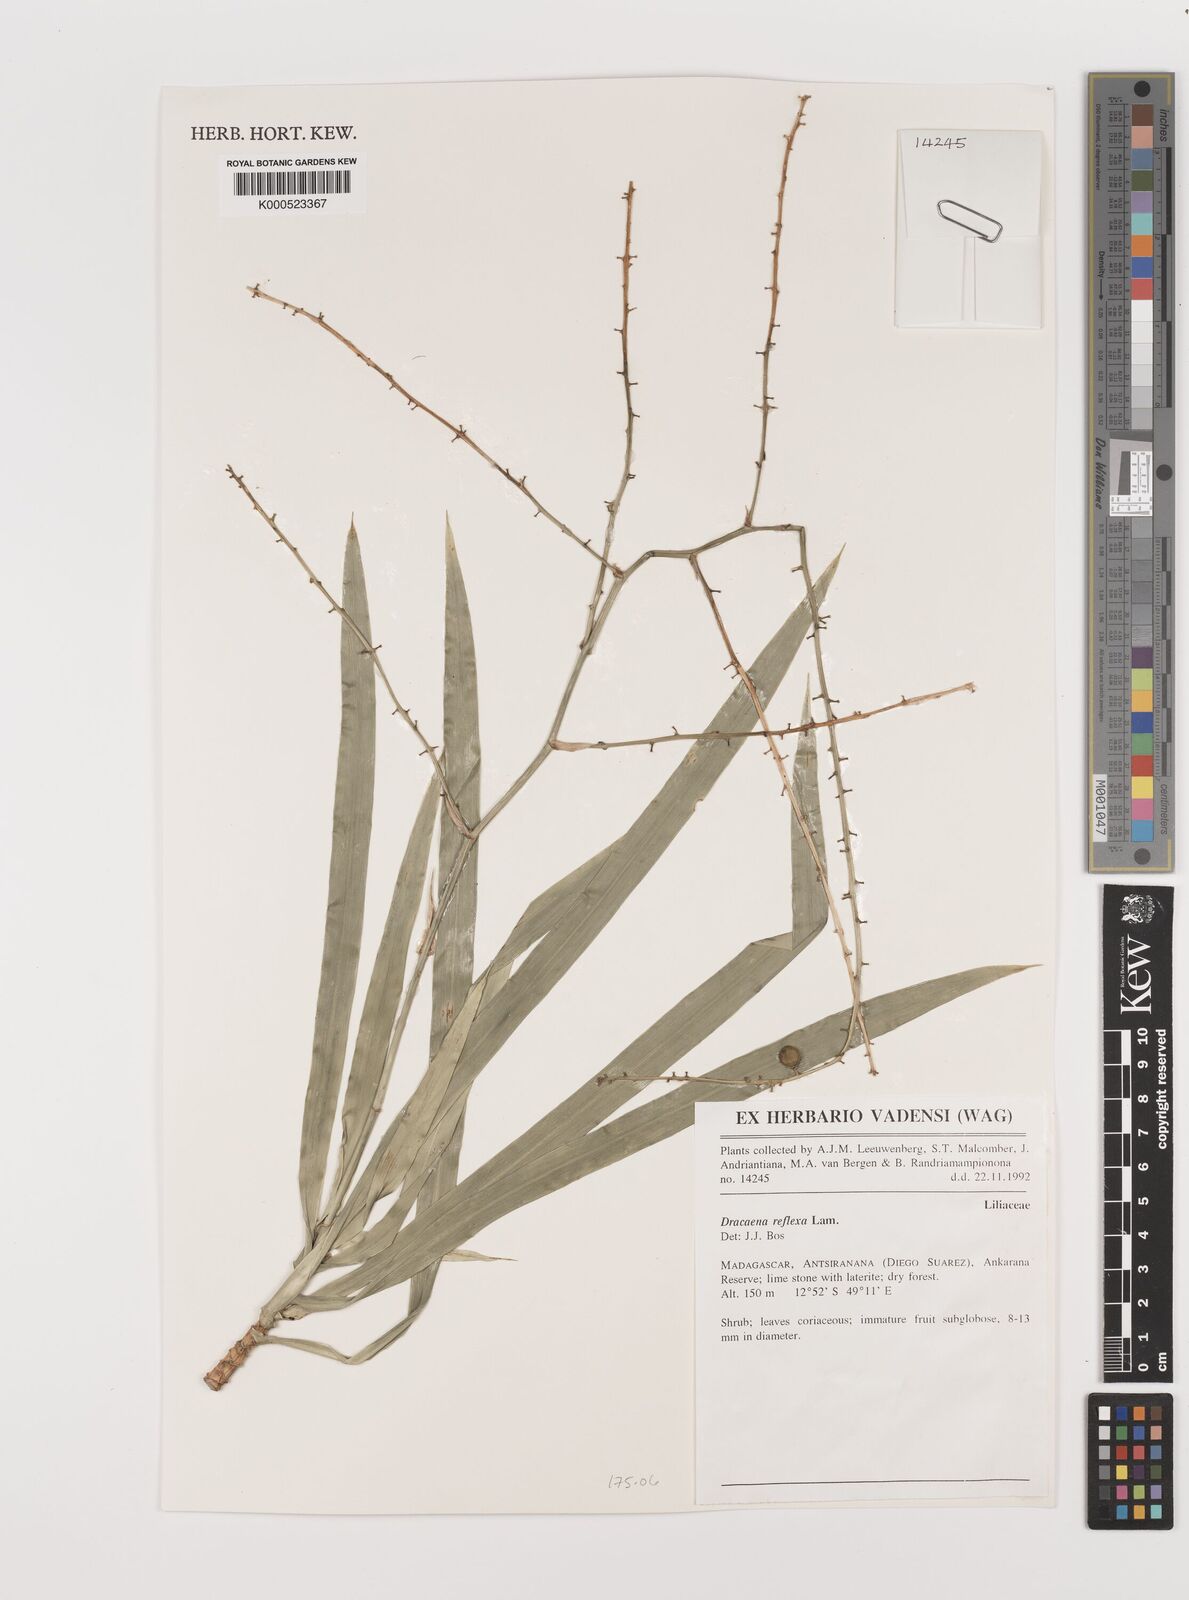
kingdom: Plantae
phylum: Tracheophyta
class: Liliopsida
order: Asparagales
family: Asparagaceae
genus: Dracaena
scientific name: Dracaena reflexa
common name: Song-of-india
